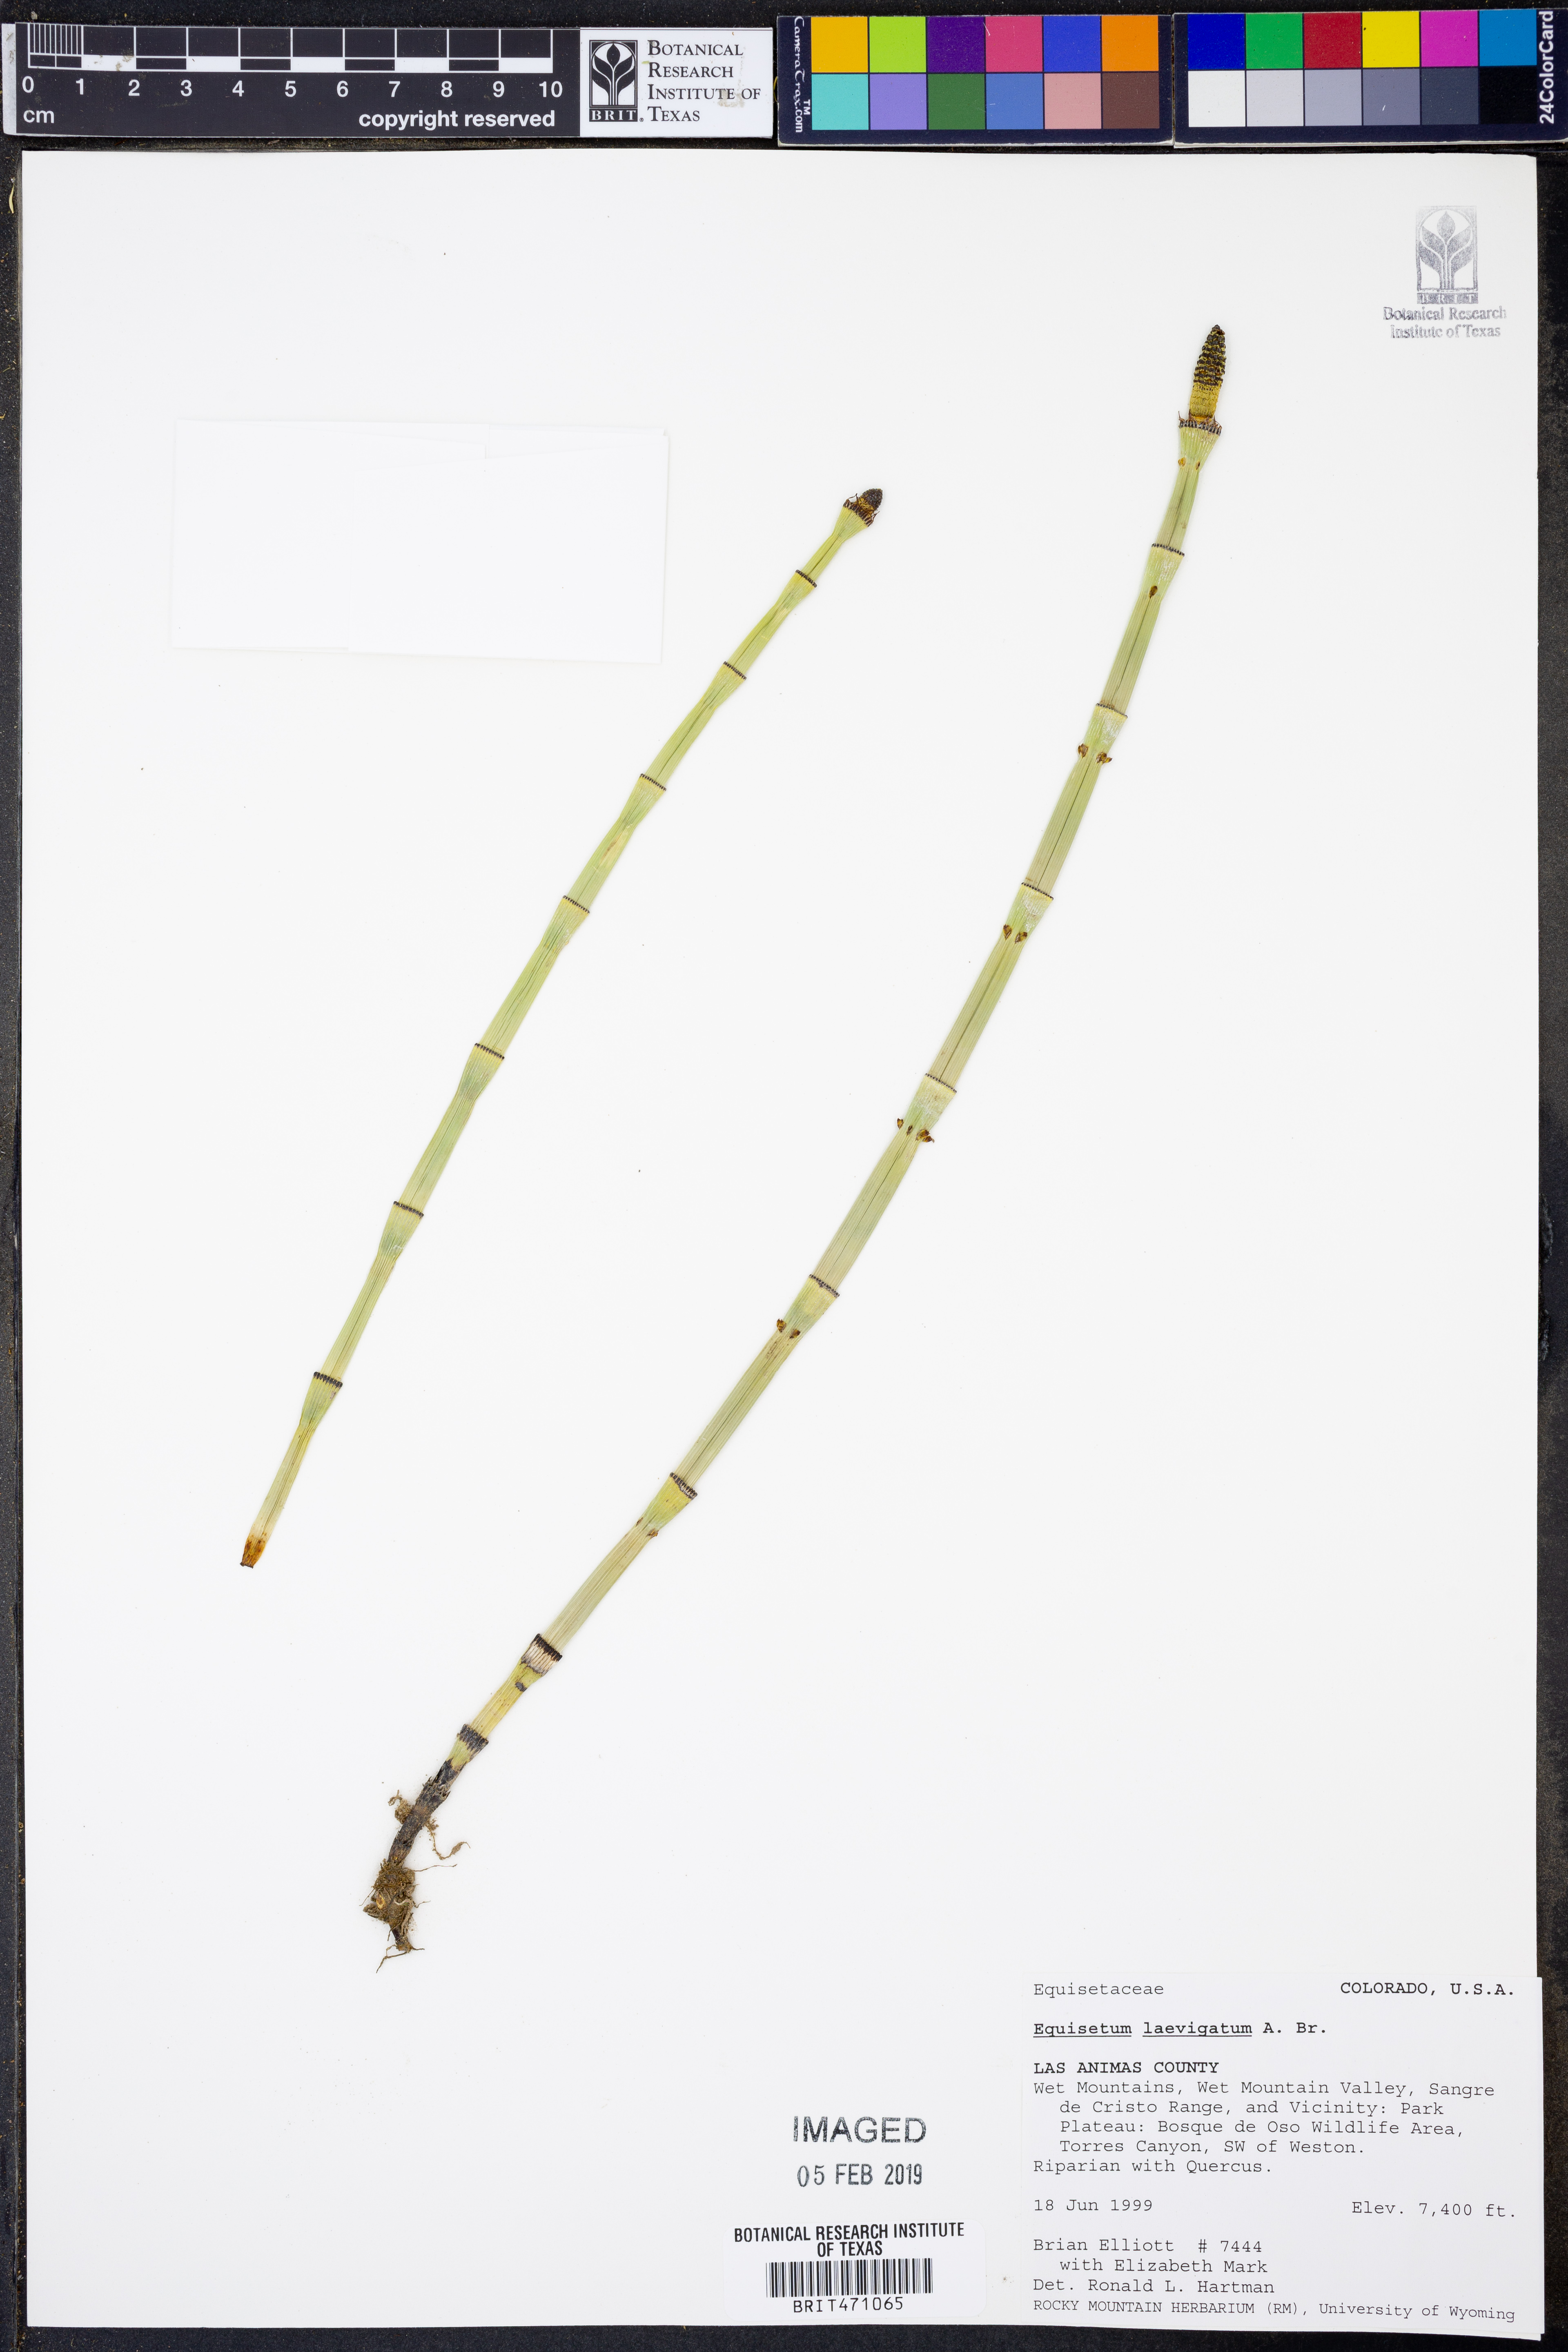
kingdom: Plantae
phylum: Tracheophyta
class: Polypodiopsida
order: Equisetales
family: Equisetaceae
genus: Equisetum
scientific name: Equisetum laevigatum
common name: Smooth scouring-rush
